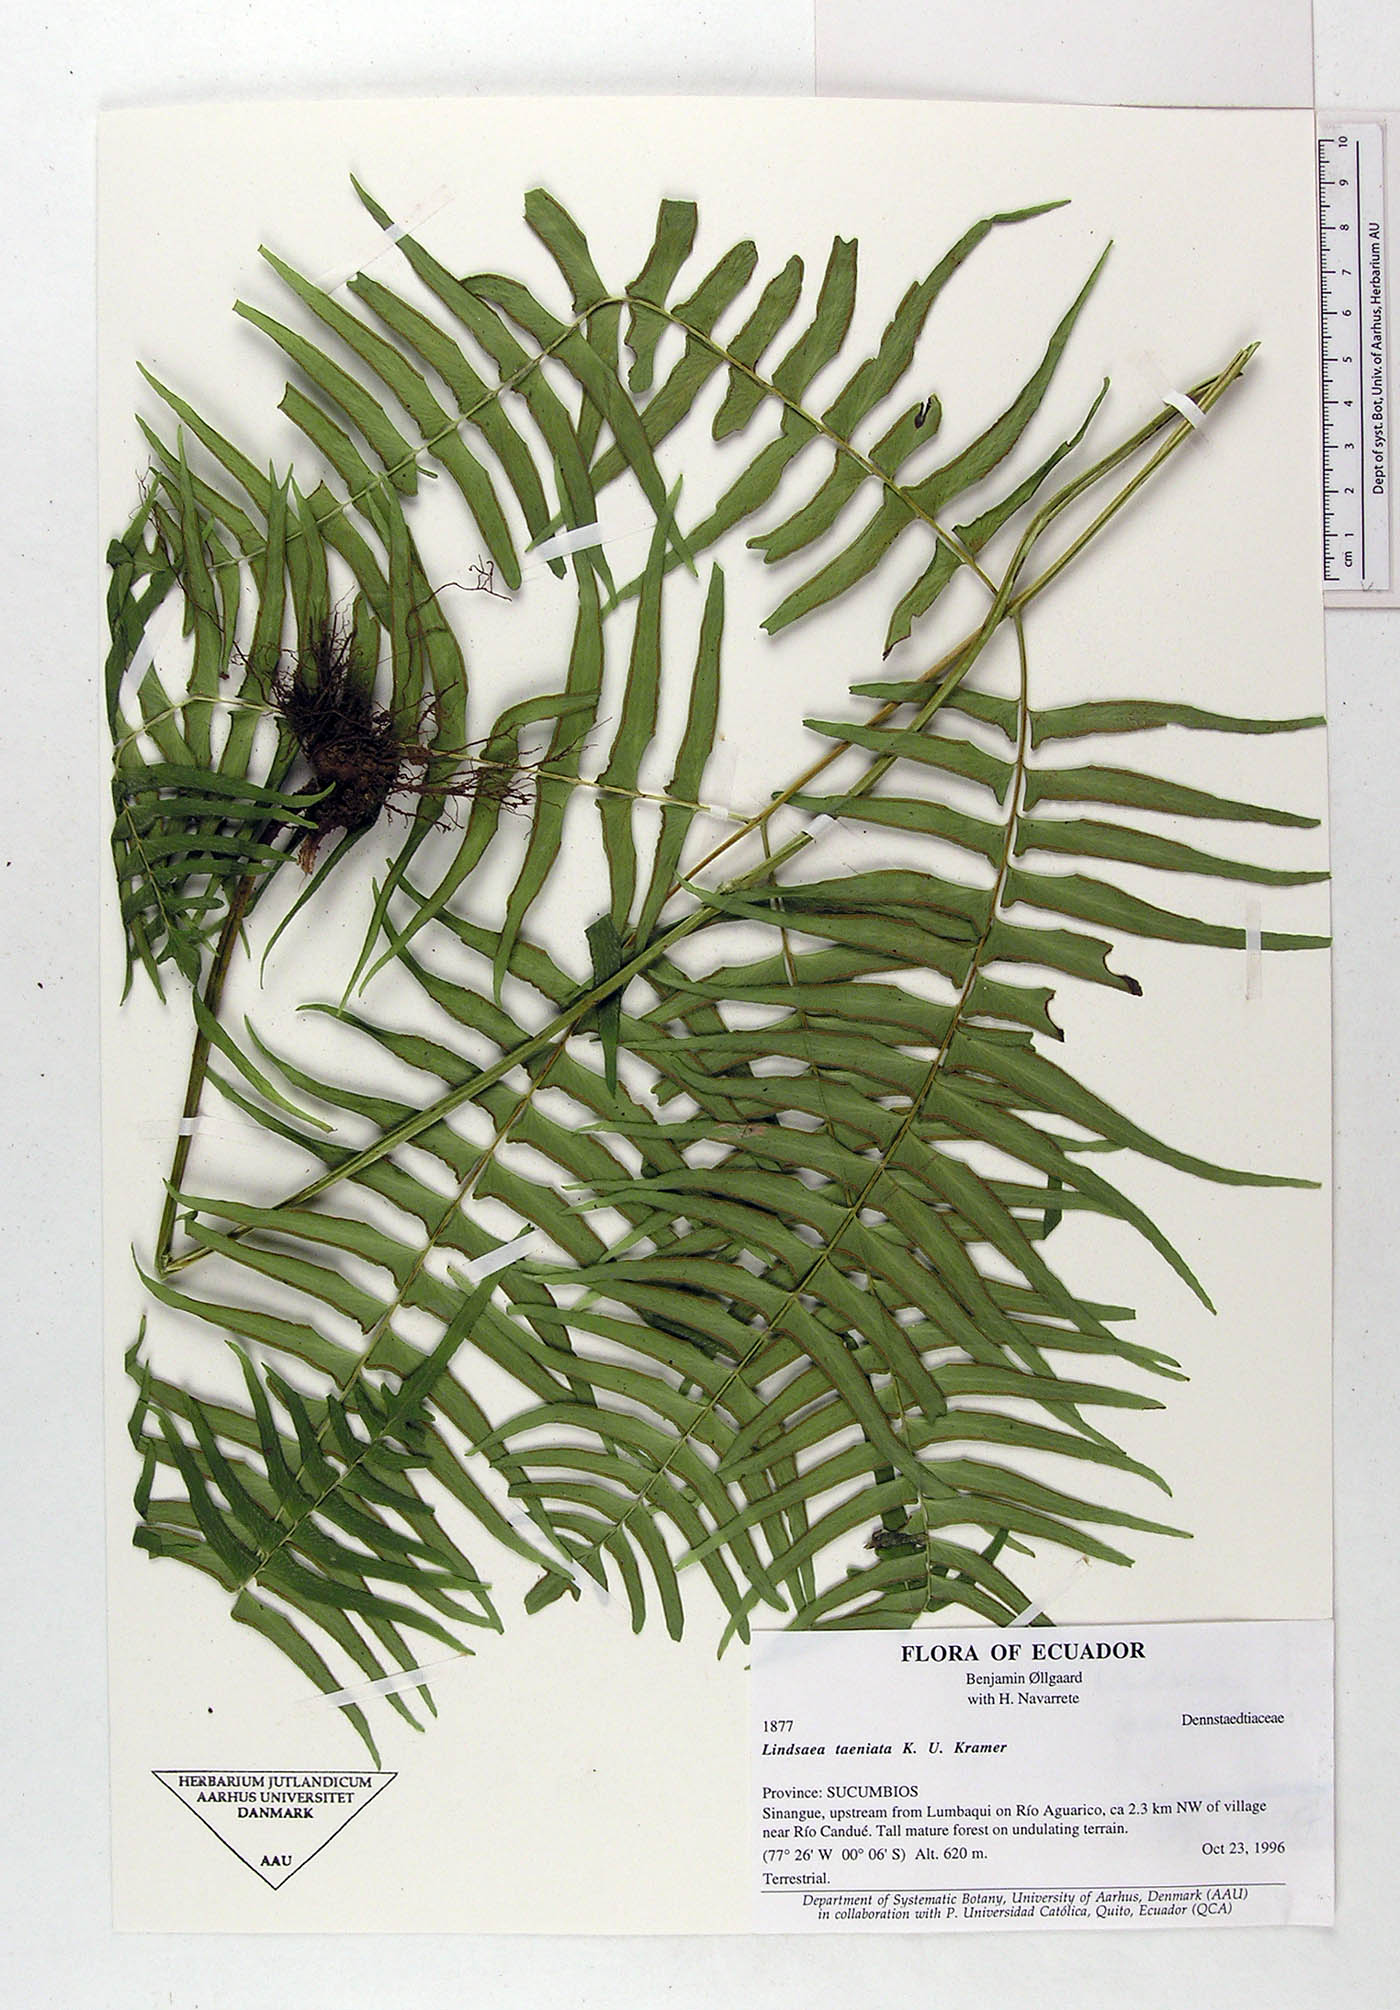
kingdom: Plantae
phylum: Tracheophyta
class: Polypodiopsida
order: Polypodiales
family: Lindsaeaceae
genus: Lindsaea
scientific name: Lindsaea taeniata
